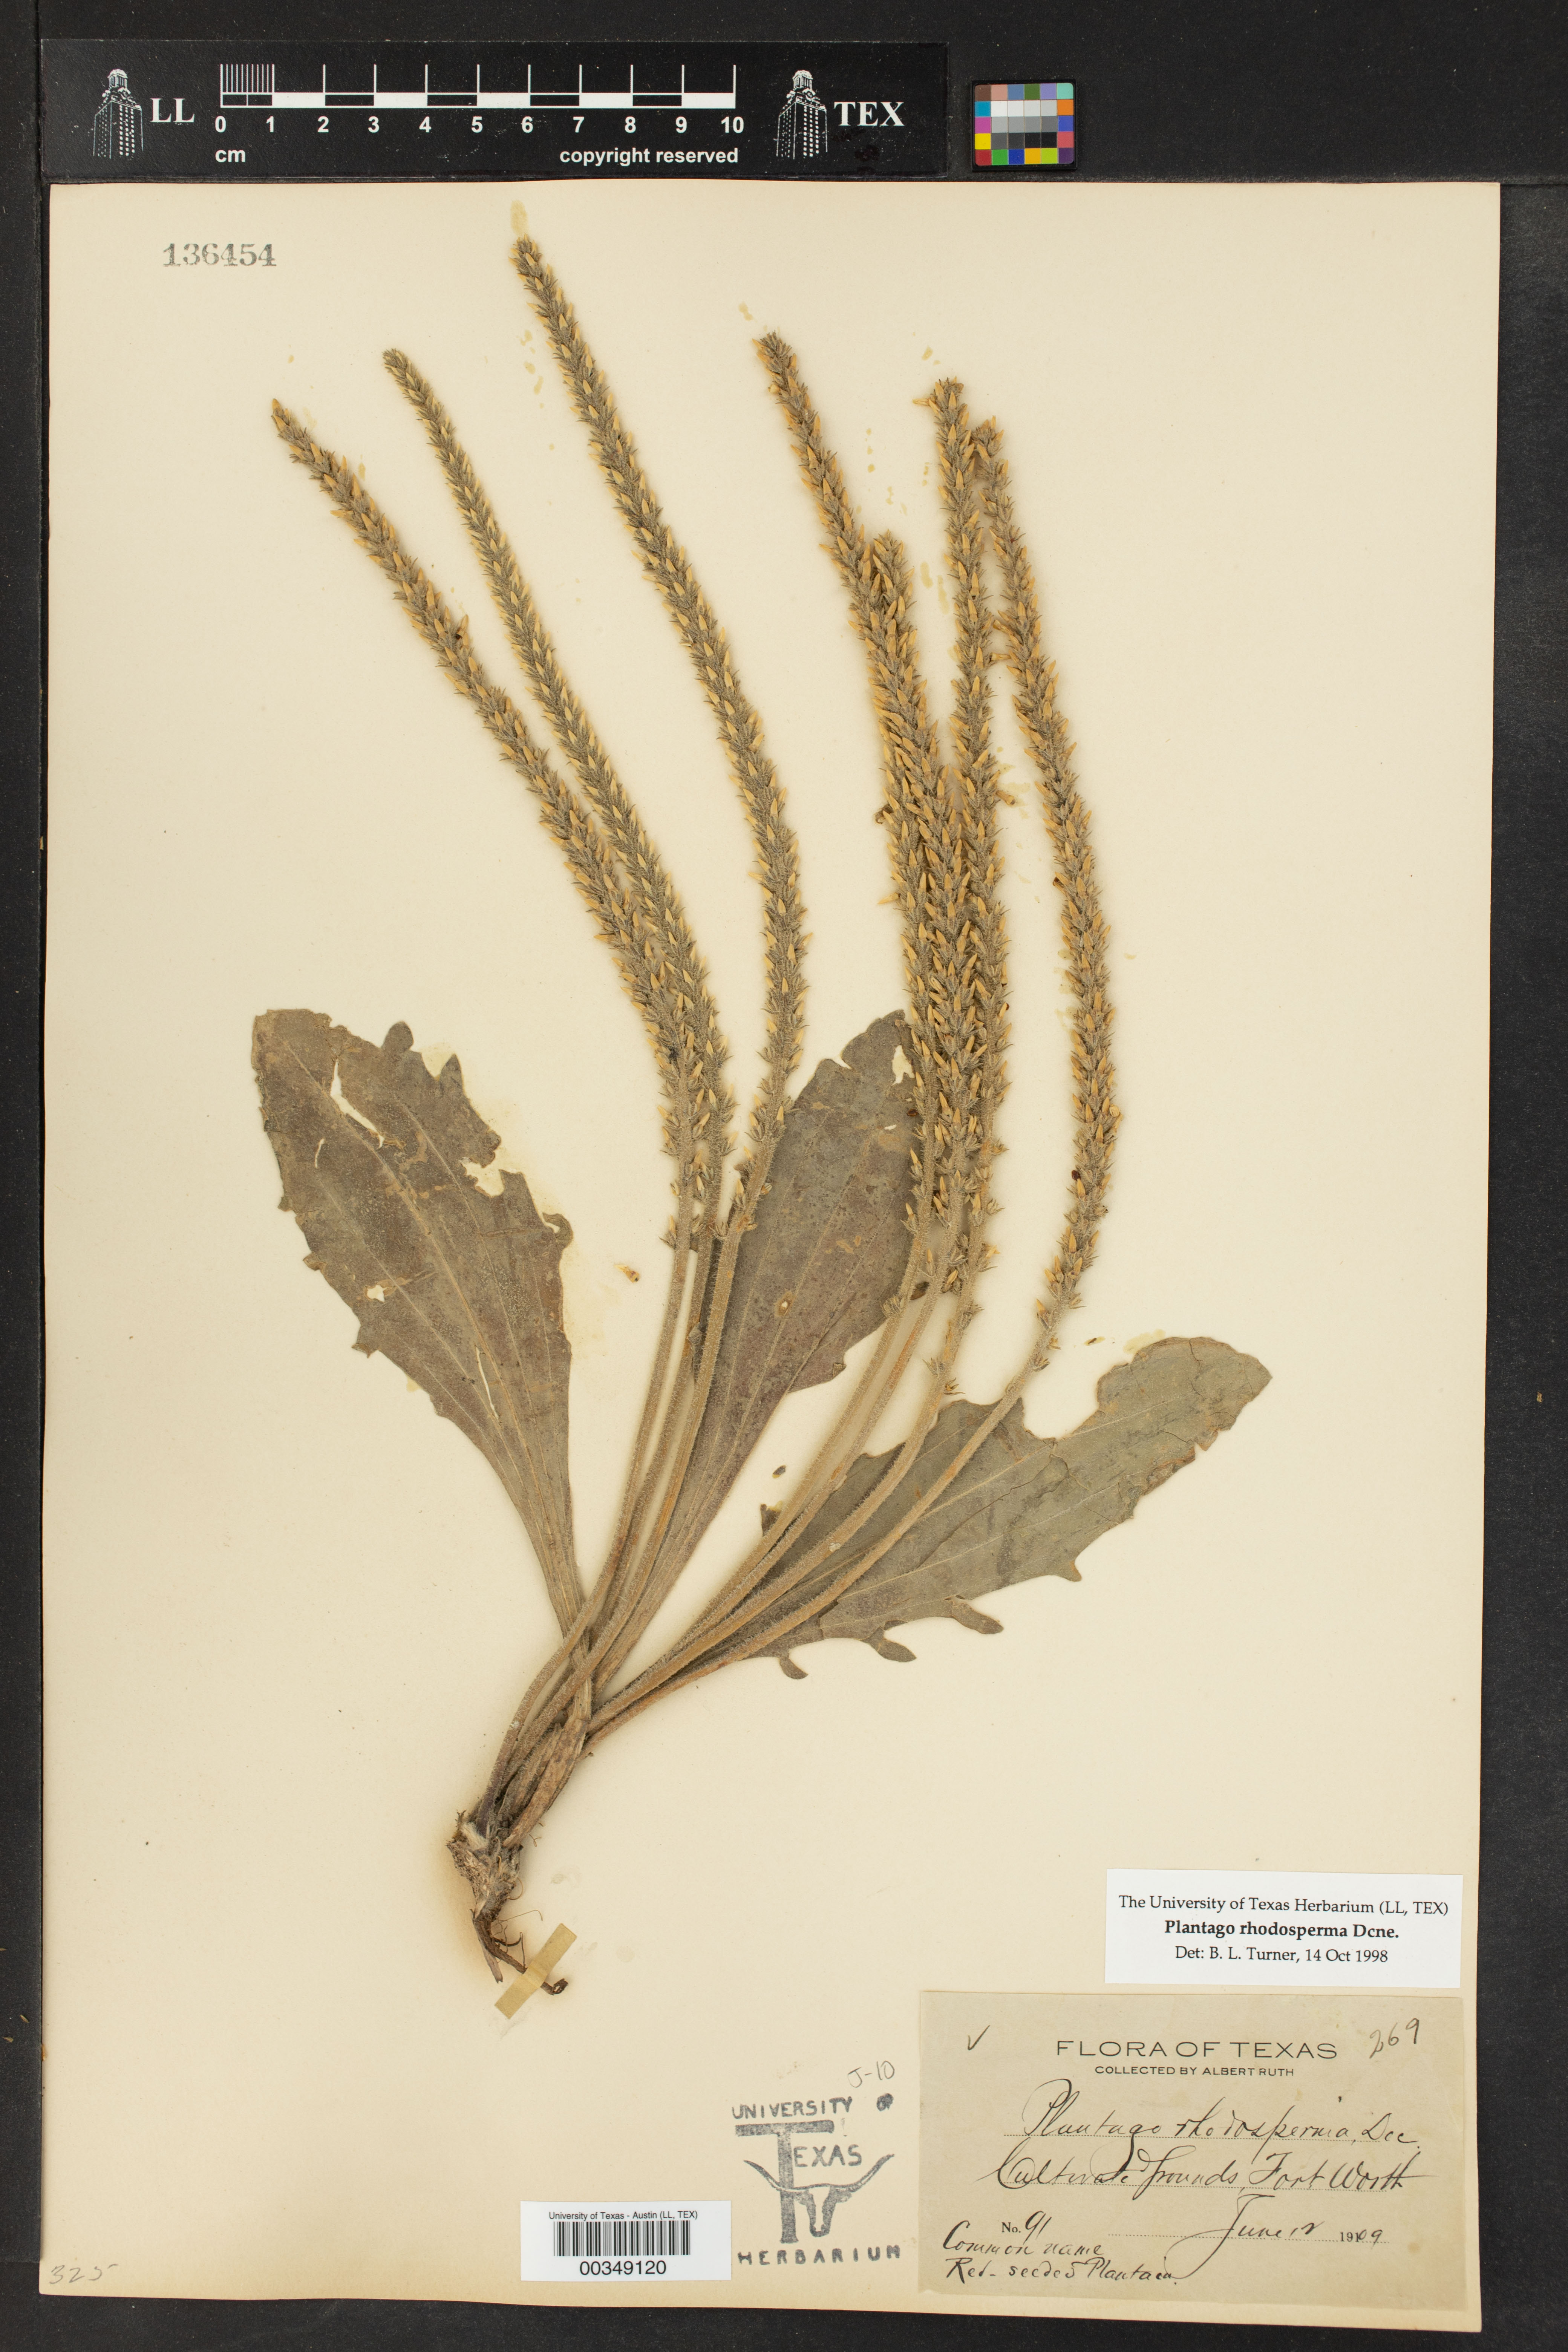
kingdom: Plantae
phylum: Tracheophyta
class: Magnoliopsida
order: Lamiales
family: Plantaginaceae
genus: Plantago
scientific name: Plantago rhodosperma
